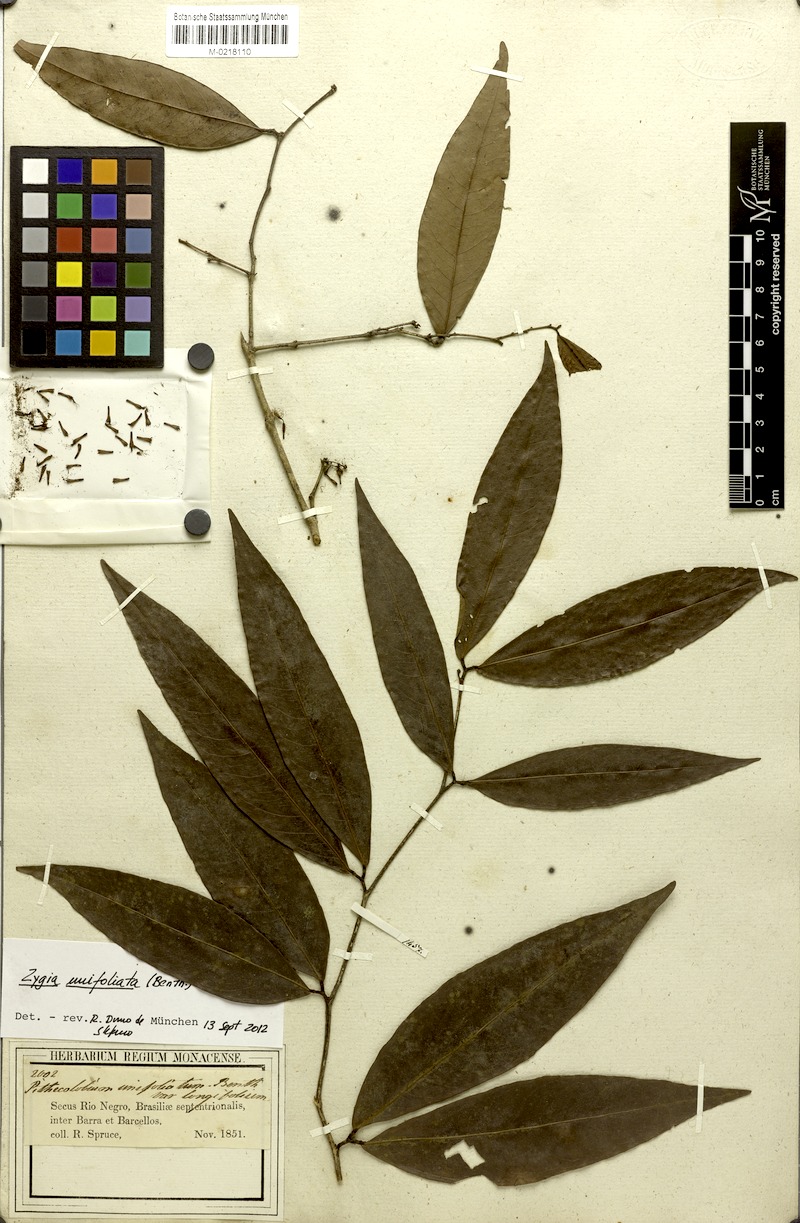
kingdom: Plantae
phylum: Tracheophyta
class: Magnoliopsida
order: Fabales
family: Fabaceae
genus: Zygia
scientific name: Zygia unifoliolata
